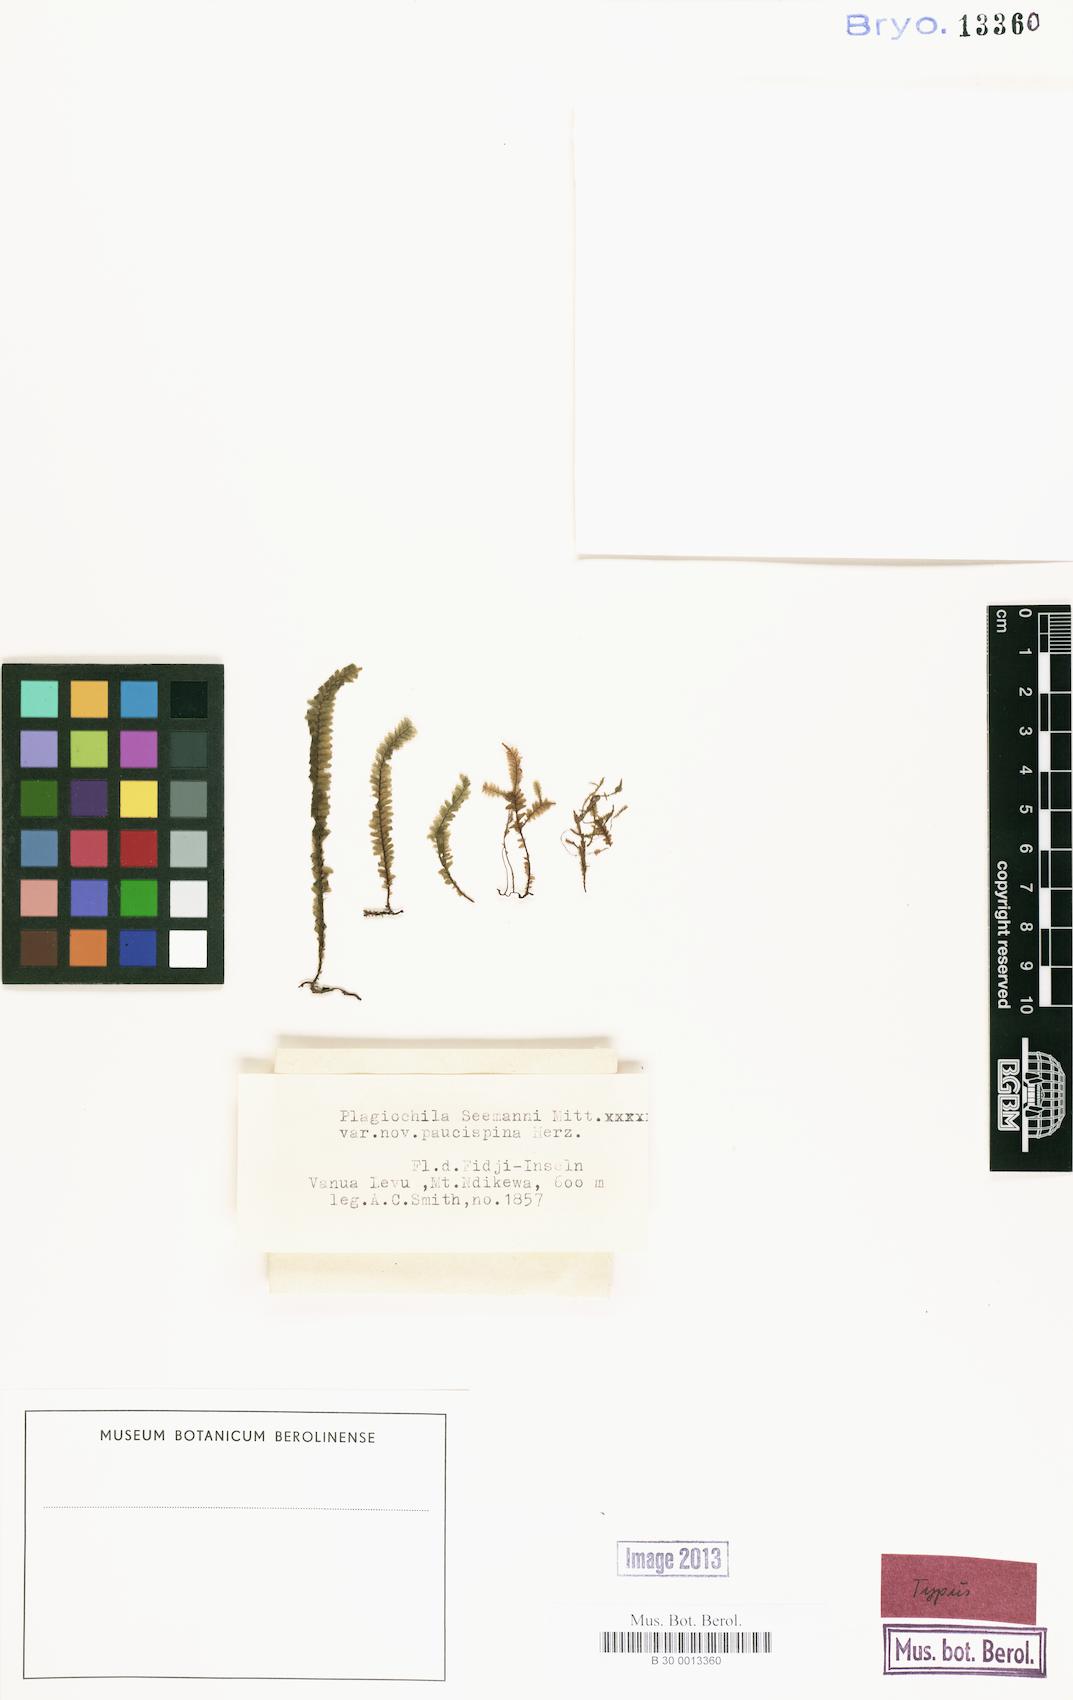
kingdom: Plantae
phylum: Marchantiophyta
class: Jungermanniopsida
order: Jungermanniales
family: Plagiochilaceae
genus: Plagiochila
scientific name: Plagiochila sandei
